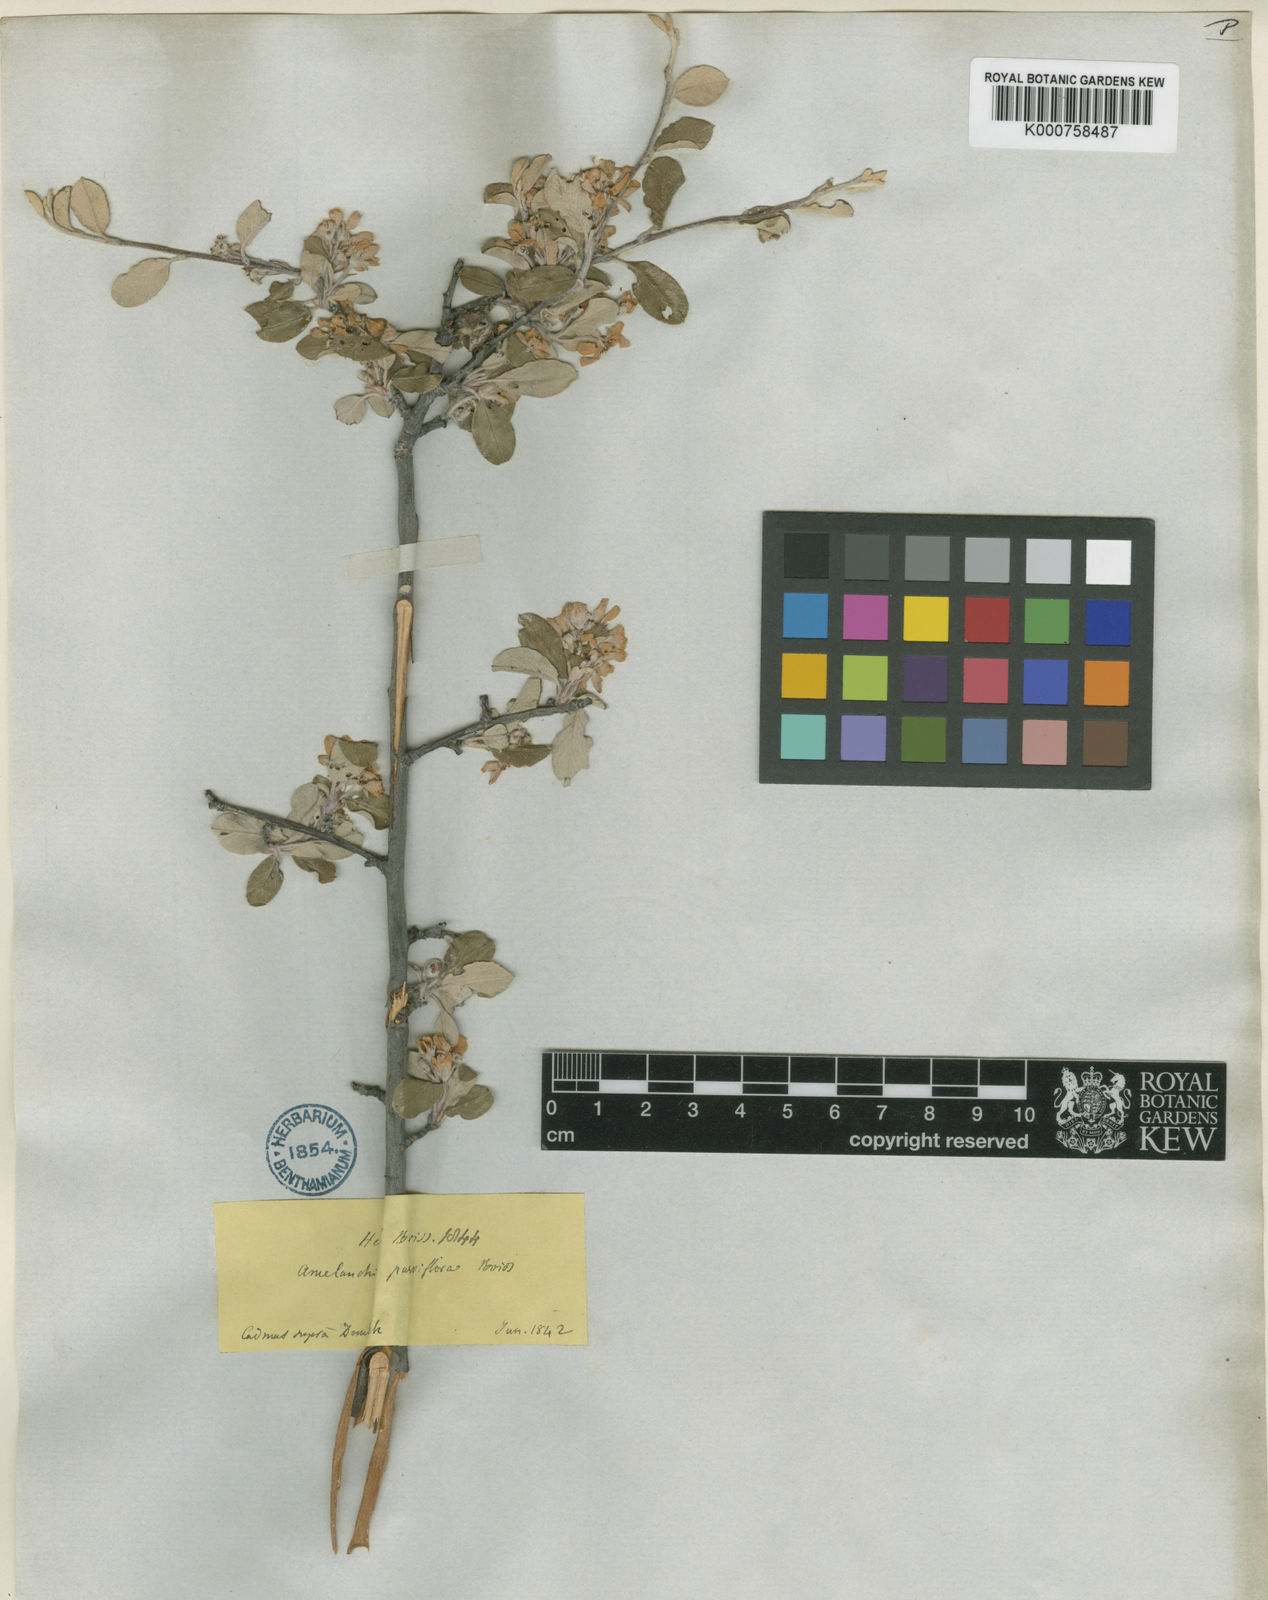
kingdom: Plantae
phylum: Tracheophyta
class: Magnoliopsida
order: Rosales
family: Rosaceae
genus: Amelanchier
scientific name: Amelanchier parviflora
